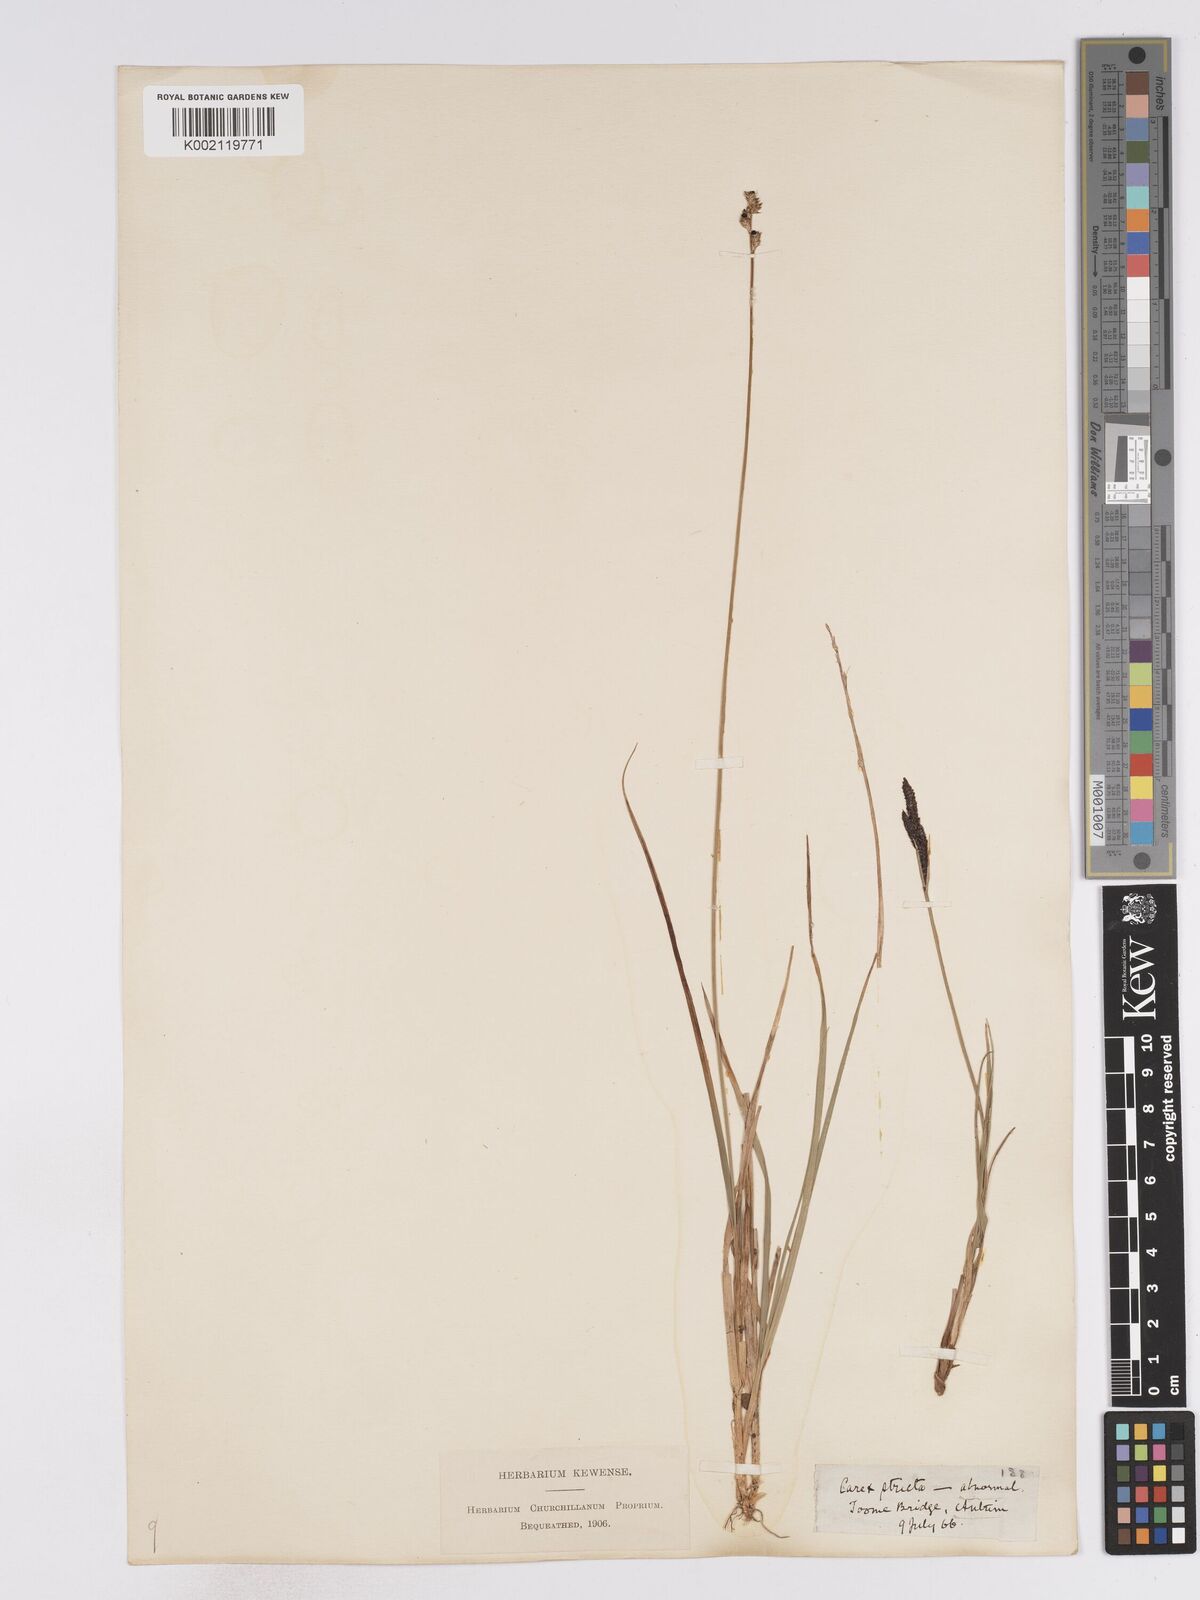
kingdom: Plantae
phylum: Tracheophyta
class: Liliopsida
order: Poales
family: Cyperaceae
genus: Carex
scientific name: Carex curta
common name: White sedge
